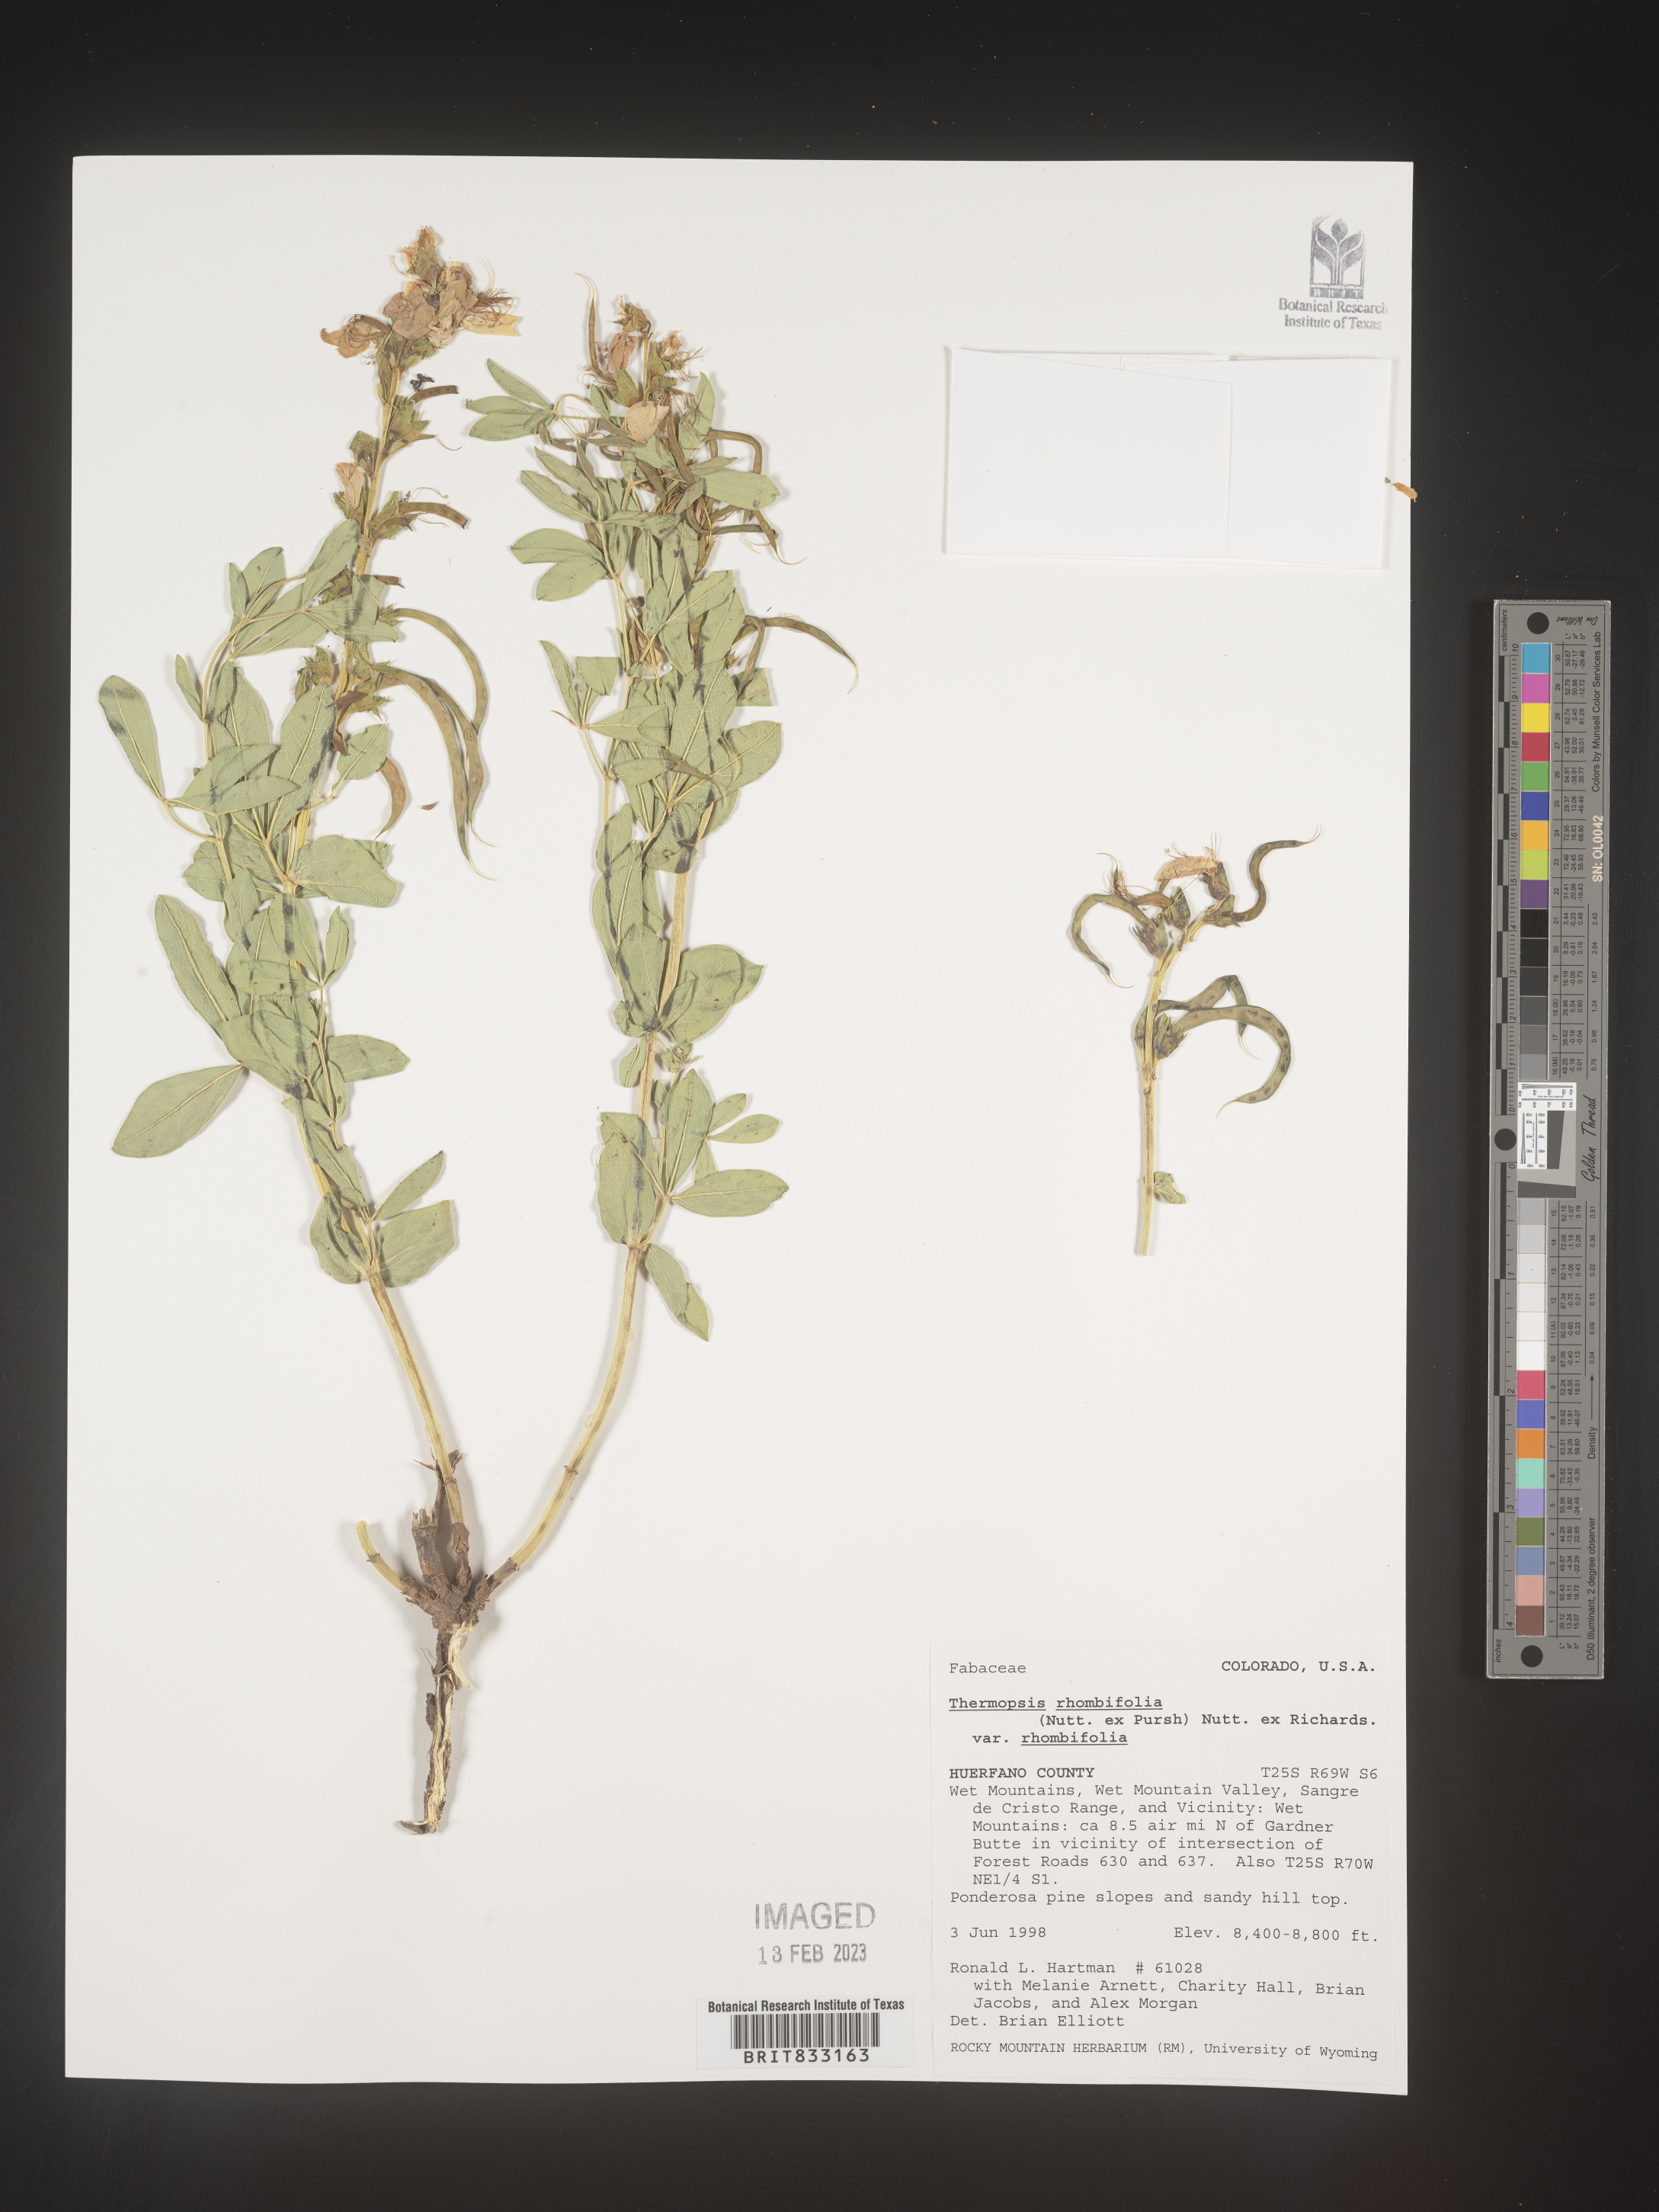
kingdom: Plantae
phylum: Tracheophyta
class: Magnoliopsida
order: Fabales
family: Fabaceae
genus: Thermopsis
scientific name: Thermopsis rhombifolia
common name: Circle-pod-pea
